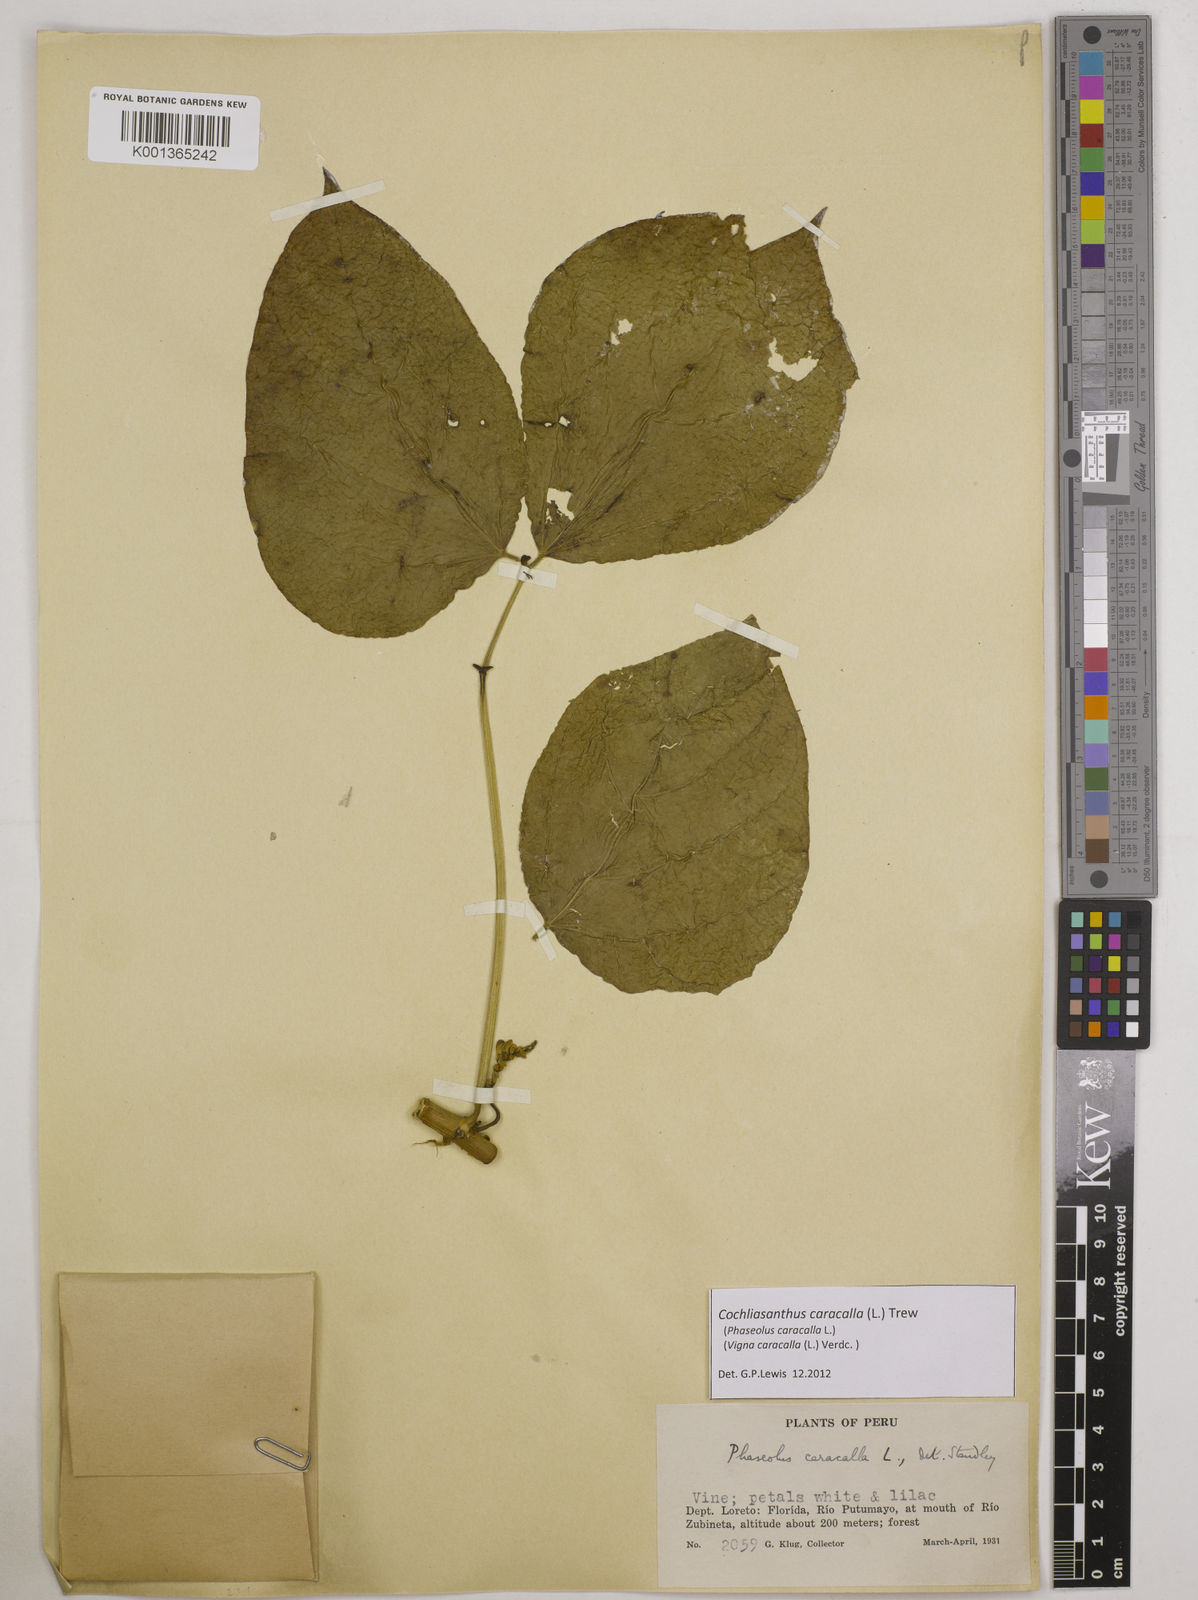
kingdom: Plantae
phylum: Tracheophyta
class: Magnoliopsida
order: Fabales
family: Fabaceae
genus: Cochliasanthus
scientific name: Cochliasanthus caracalla
